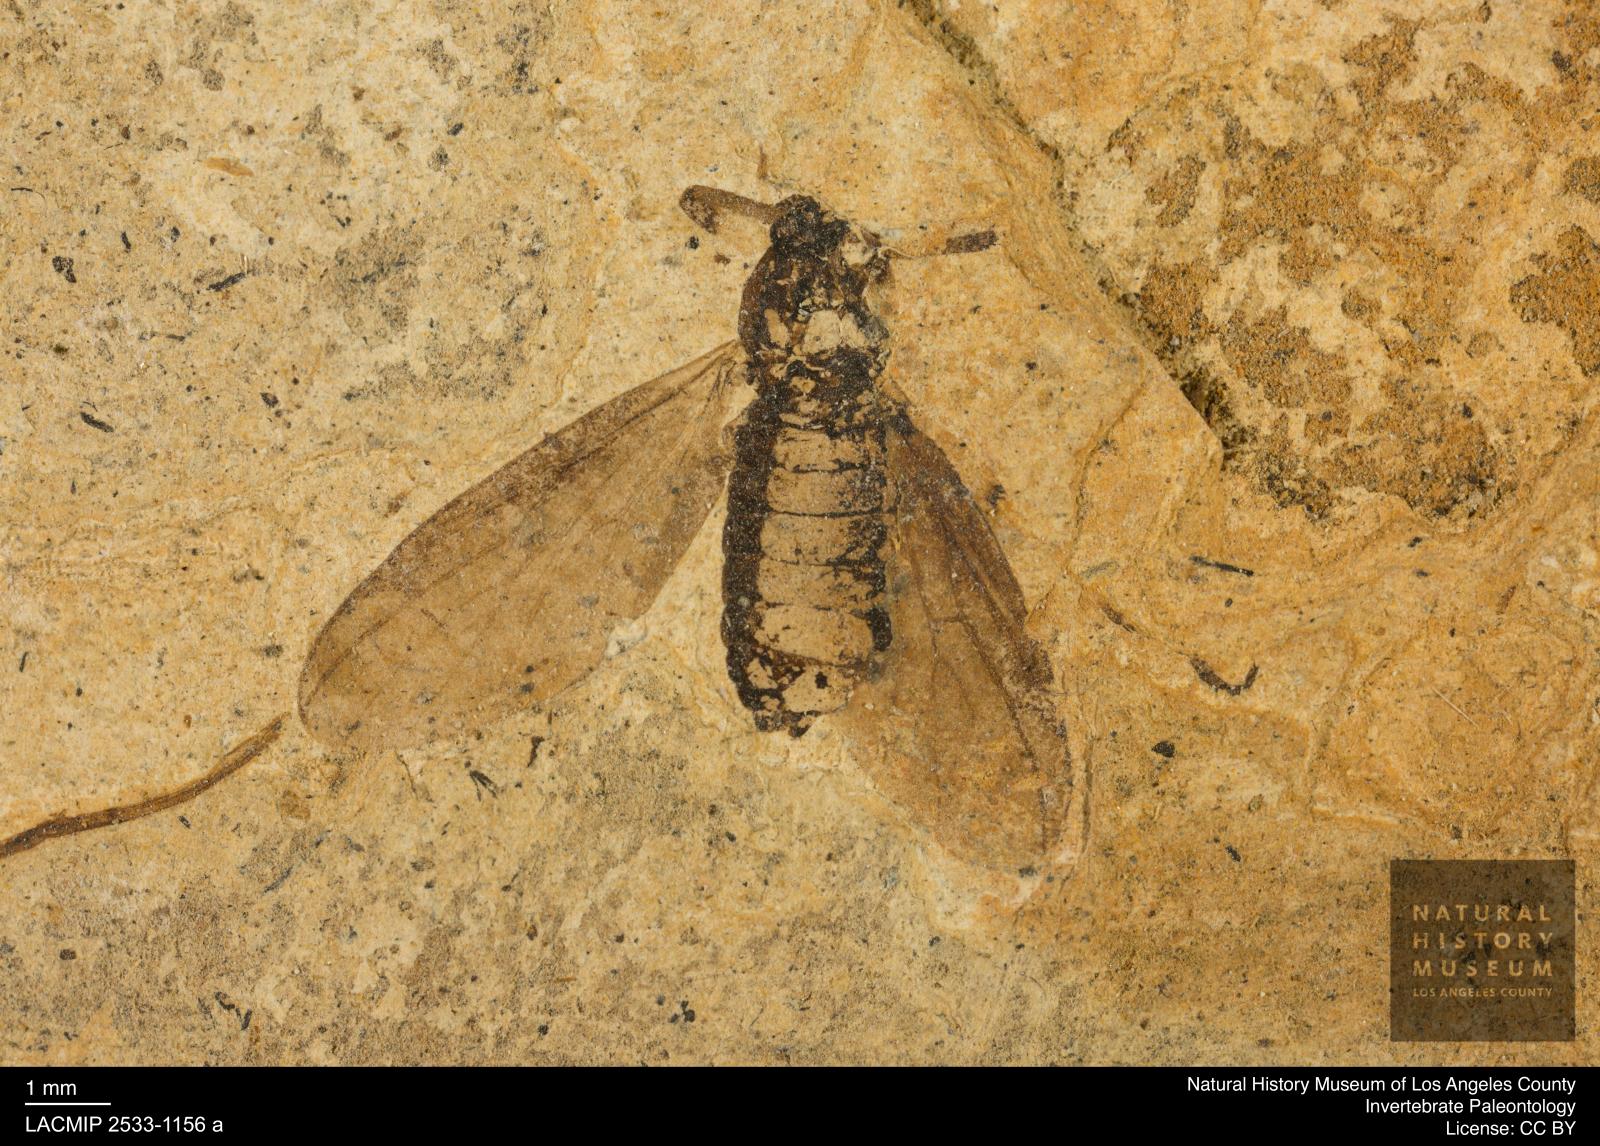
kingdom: Animalia
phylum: Arthropoda
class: Insecta
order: Diptera
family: Bibionidae
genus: Plecia
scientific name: Plecia stygia
